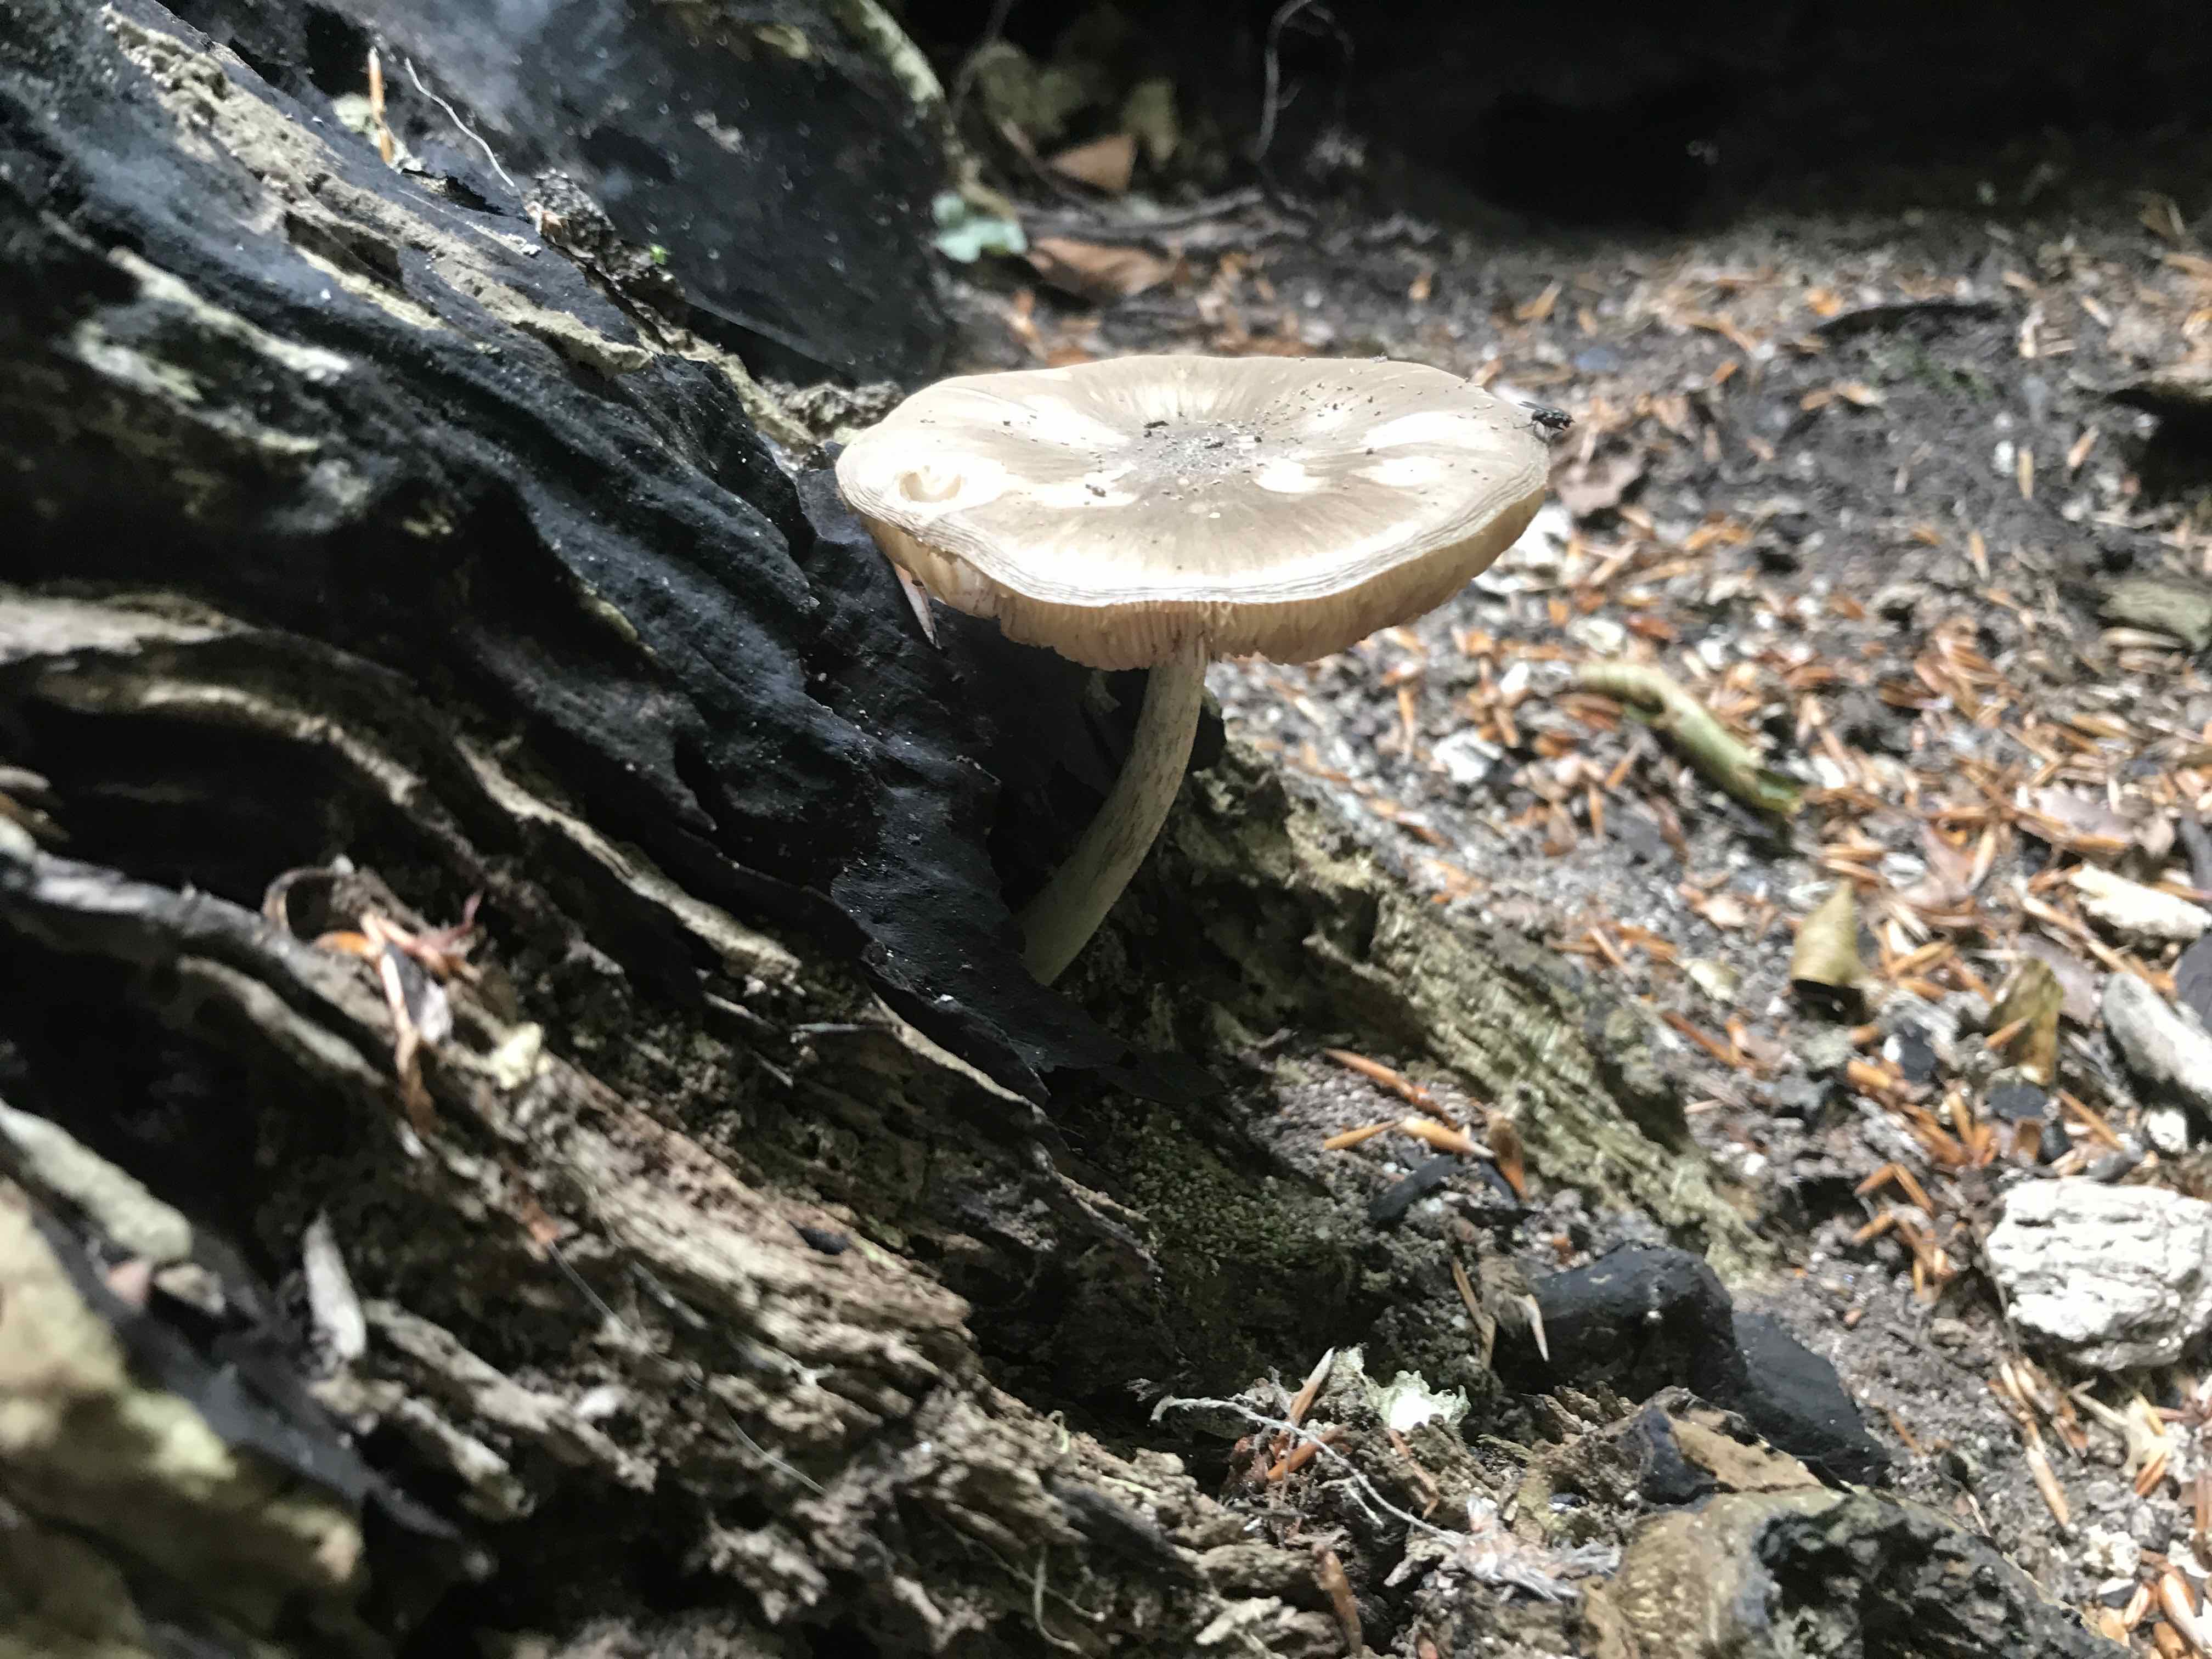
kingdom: Fungi
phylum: Basidiomycota
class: Agaricomycetes
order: Agaricales
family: Pluteaceae
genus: Pluteus
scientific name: Pluteus cervinus
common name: sodfarvet skærmhat
